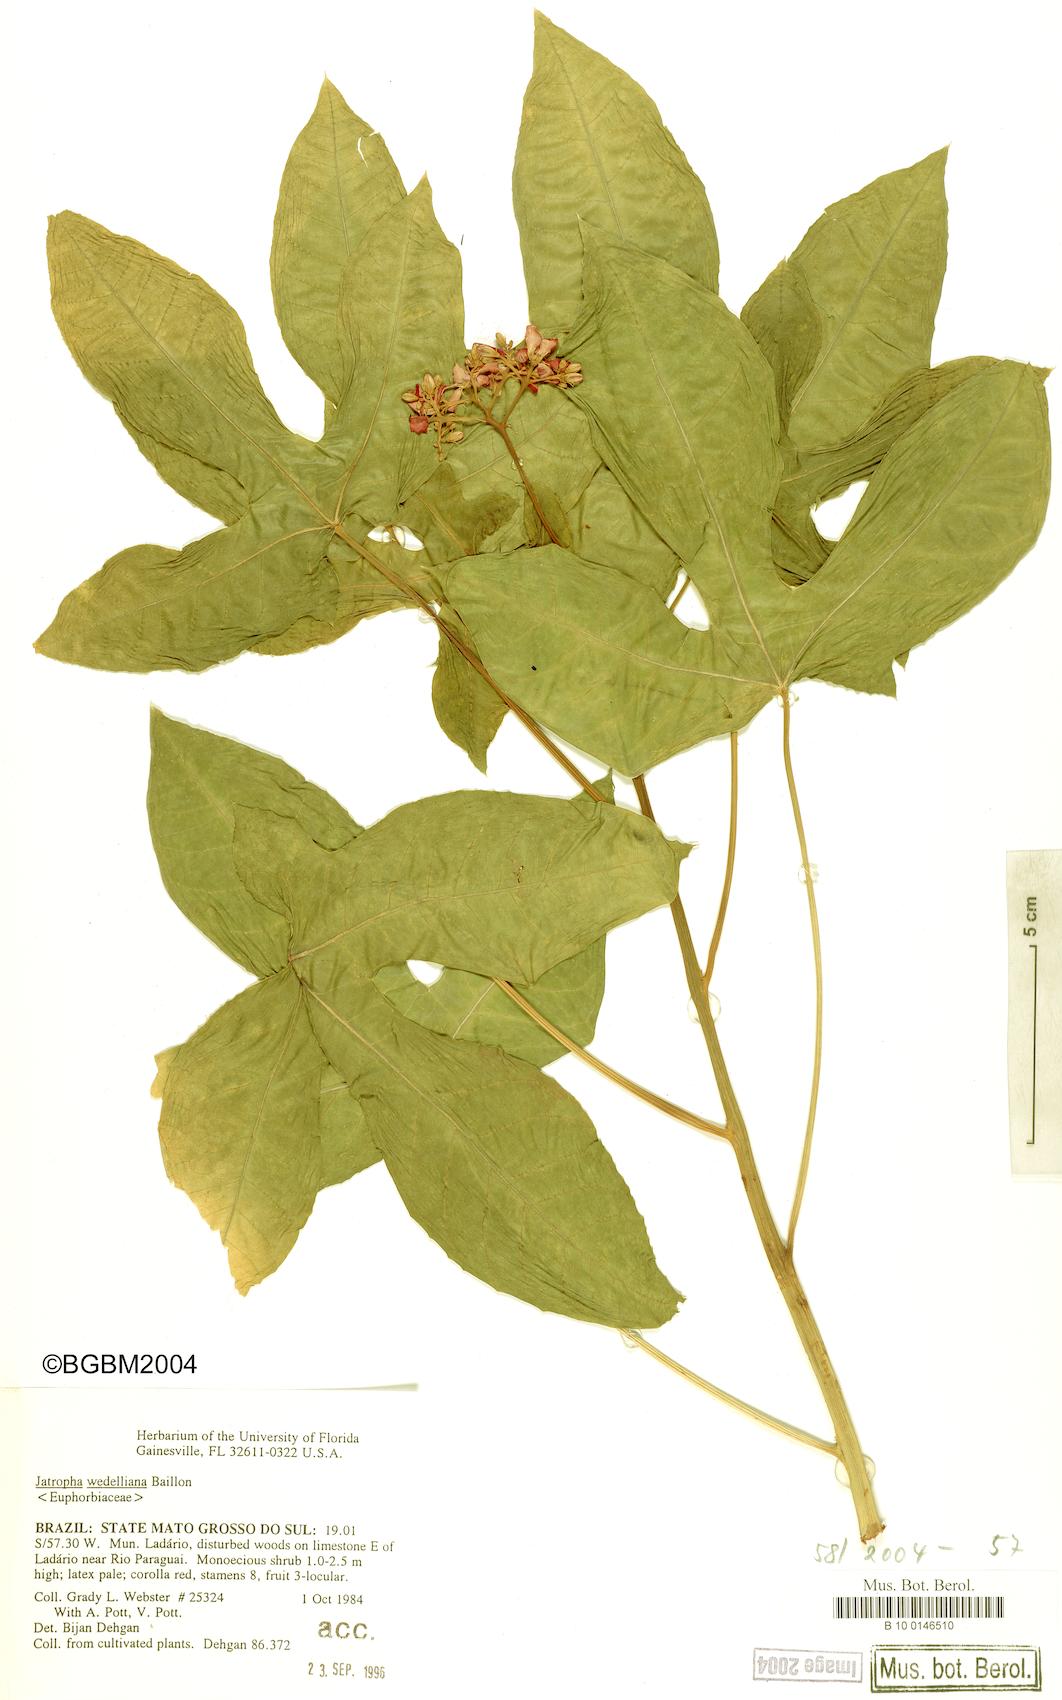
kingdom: Plantae
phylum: Tracheophyta
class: Magnoliopsida
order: Malpighiales
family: Euphorbiaceae
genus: Jatropha
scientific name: Jatropha weddeliana
